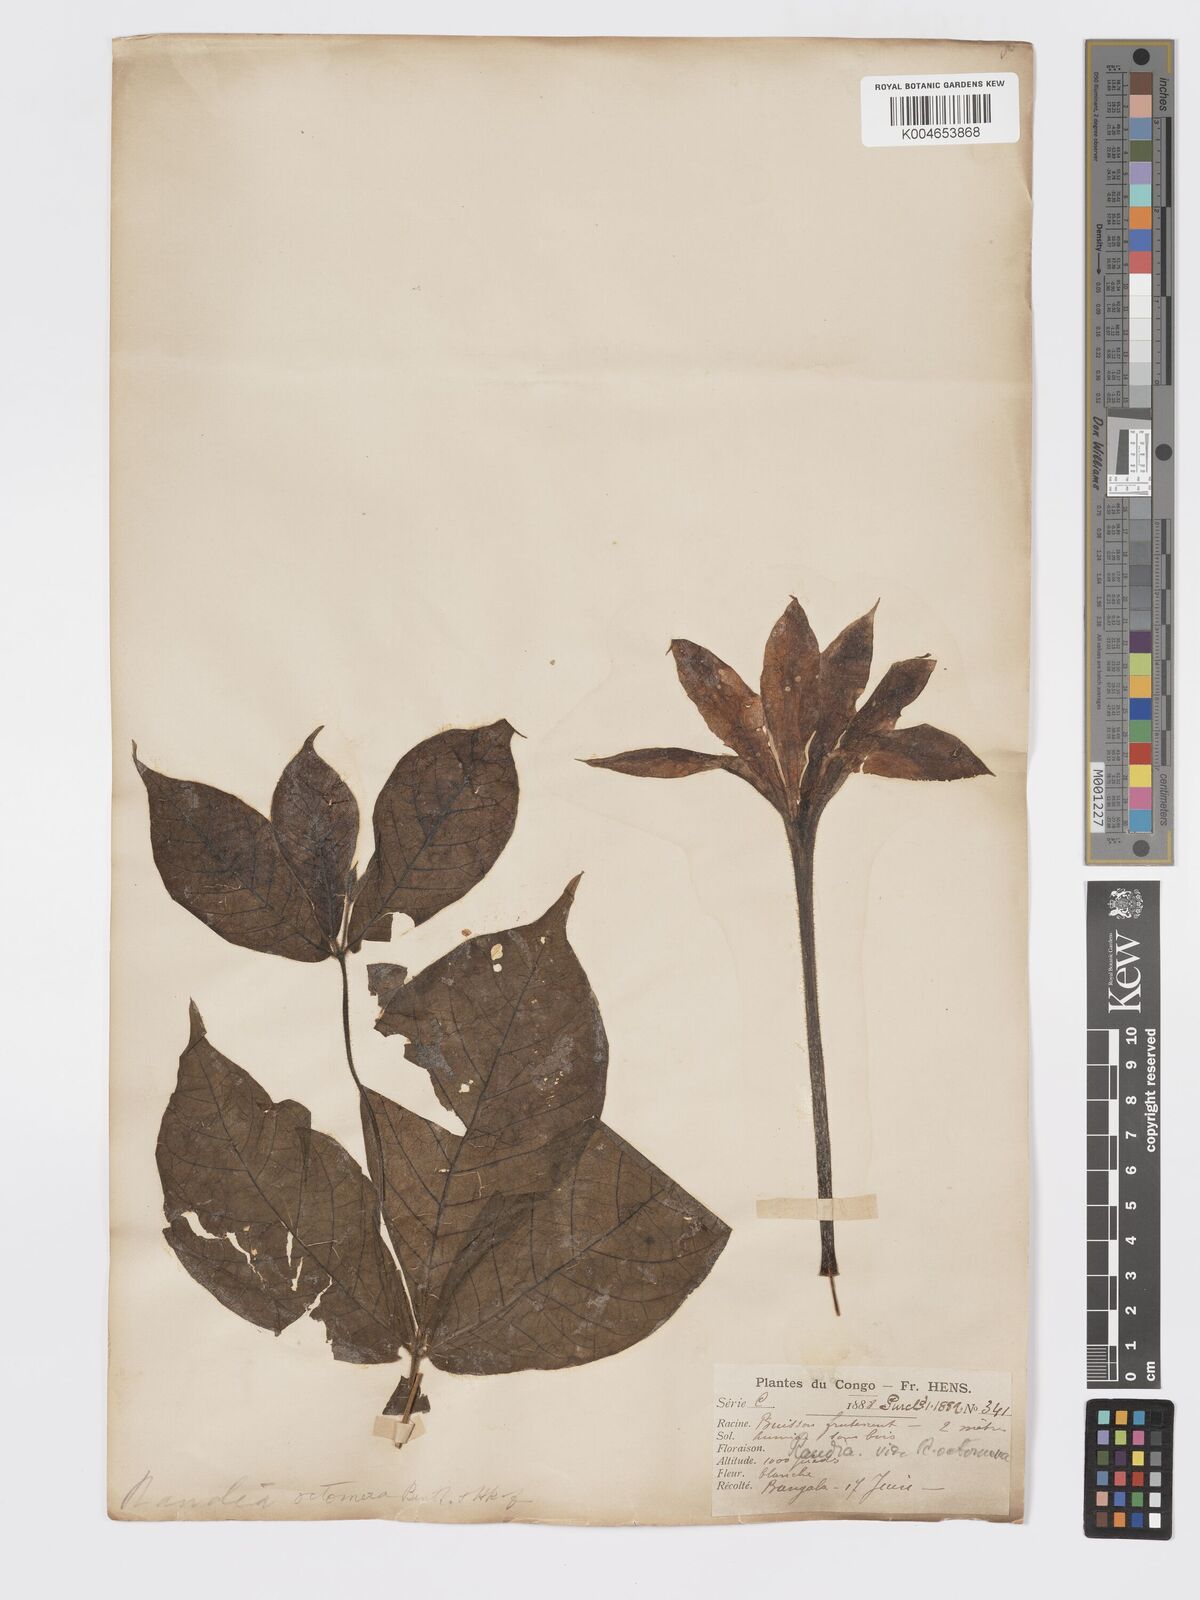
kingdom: Plantae
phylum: Tracheophyta
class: Magnoliopsida
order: Gentianales
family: Rubiaceae
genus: Rothmannia
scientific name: Rothmannia octomera
